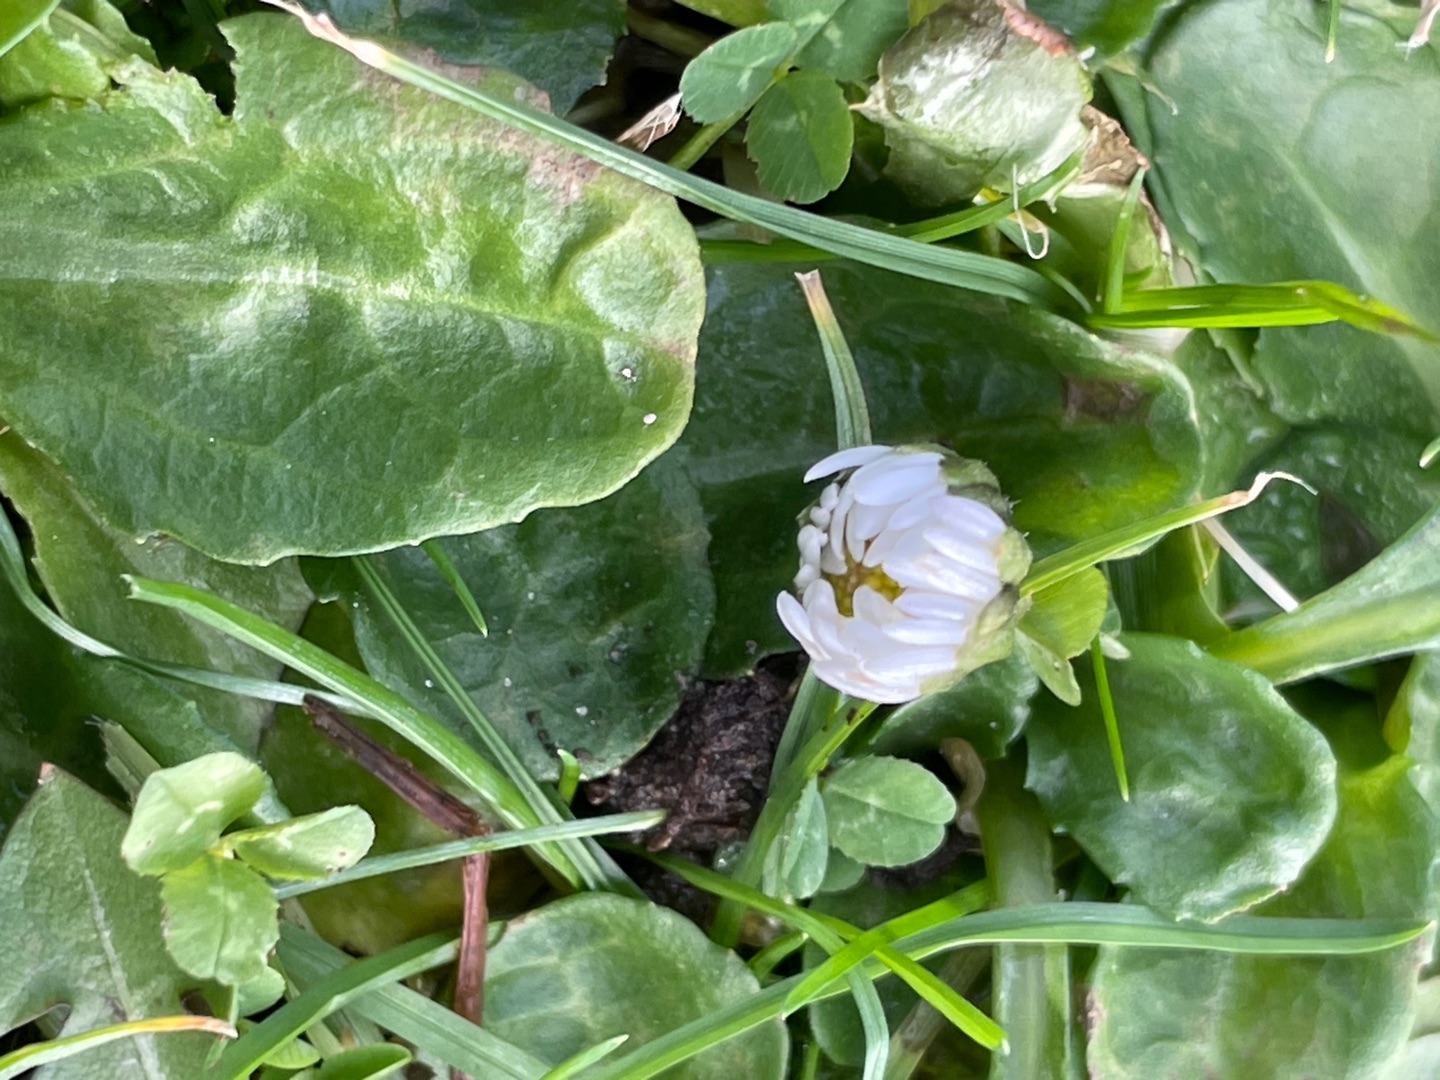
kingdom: Plantae
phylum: Tracheophyta
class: Magnoliopsida
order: Asterales
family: Asteraceae
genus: Bellis
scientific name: Bellis perennis
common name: Tusindfryd
